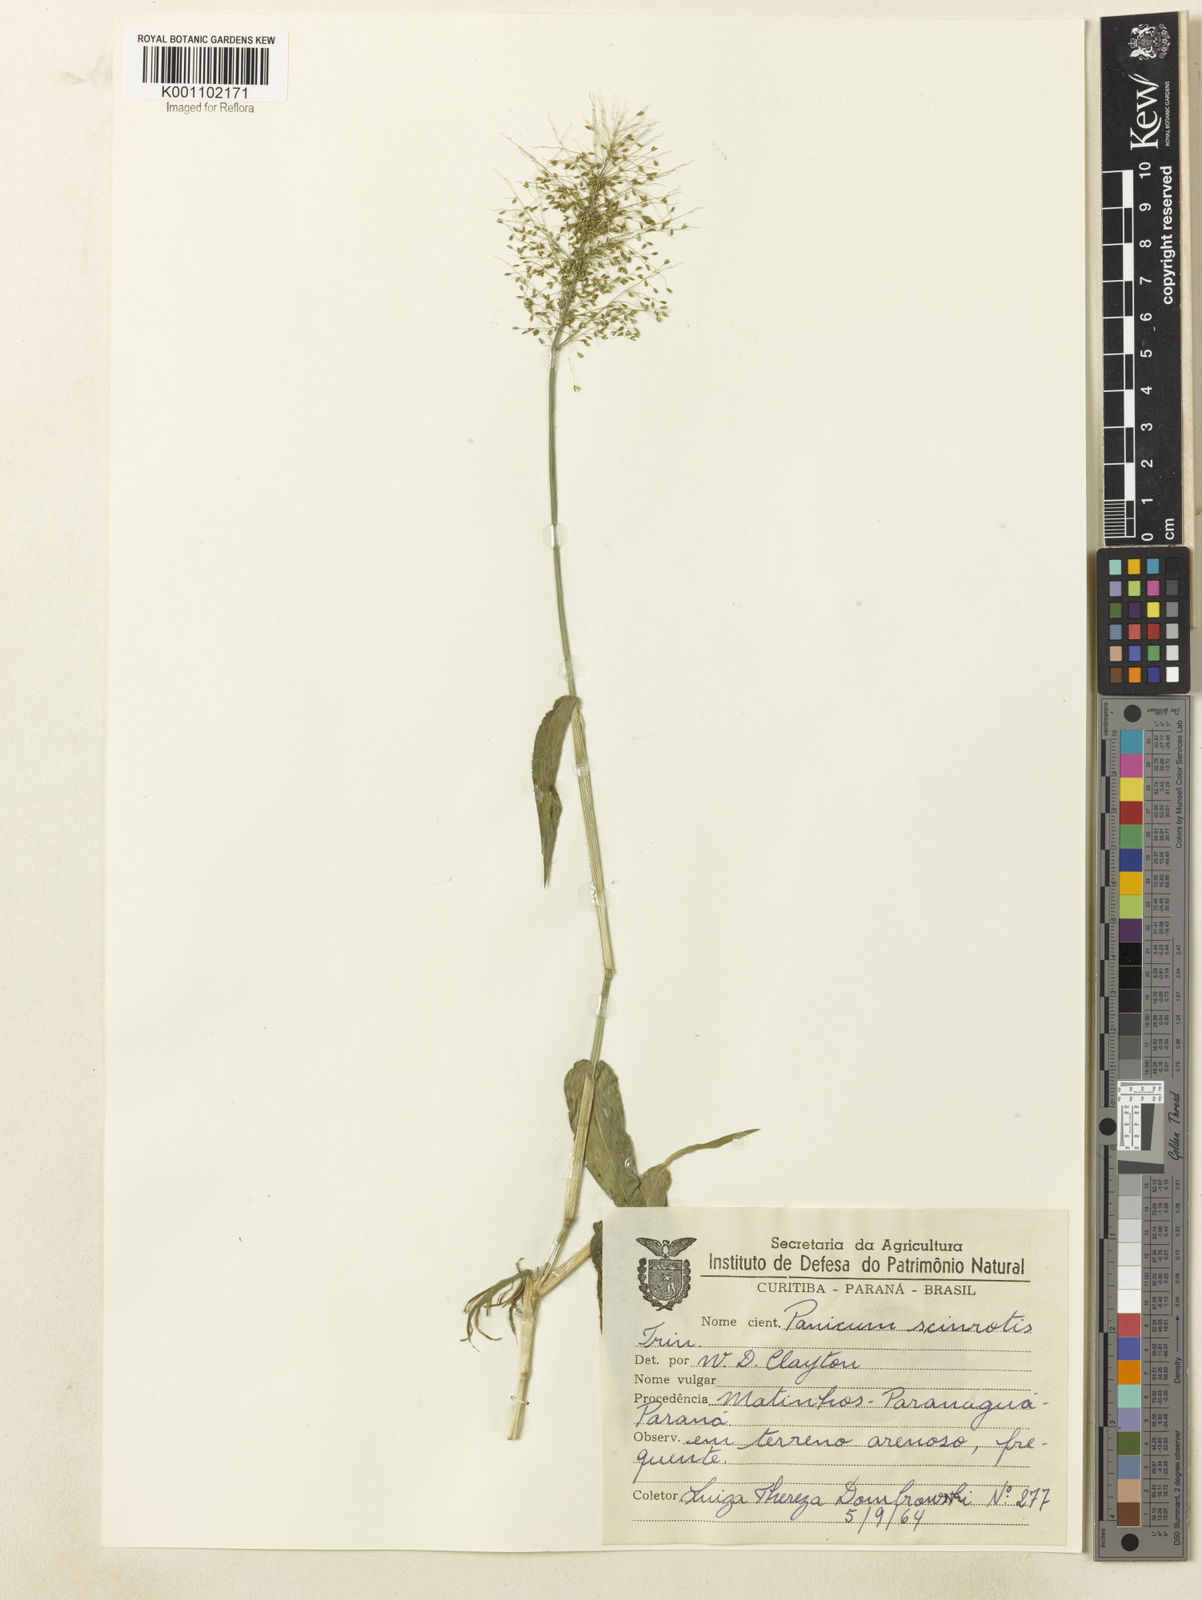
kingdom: Plantae
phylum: Tracheophyta
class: Liliopsida
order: Poales
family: Poaceae
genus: Dichanthelium
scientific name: Dichanthelium sciurotoides
